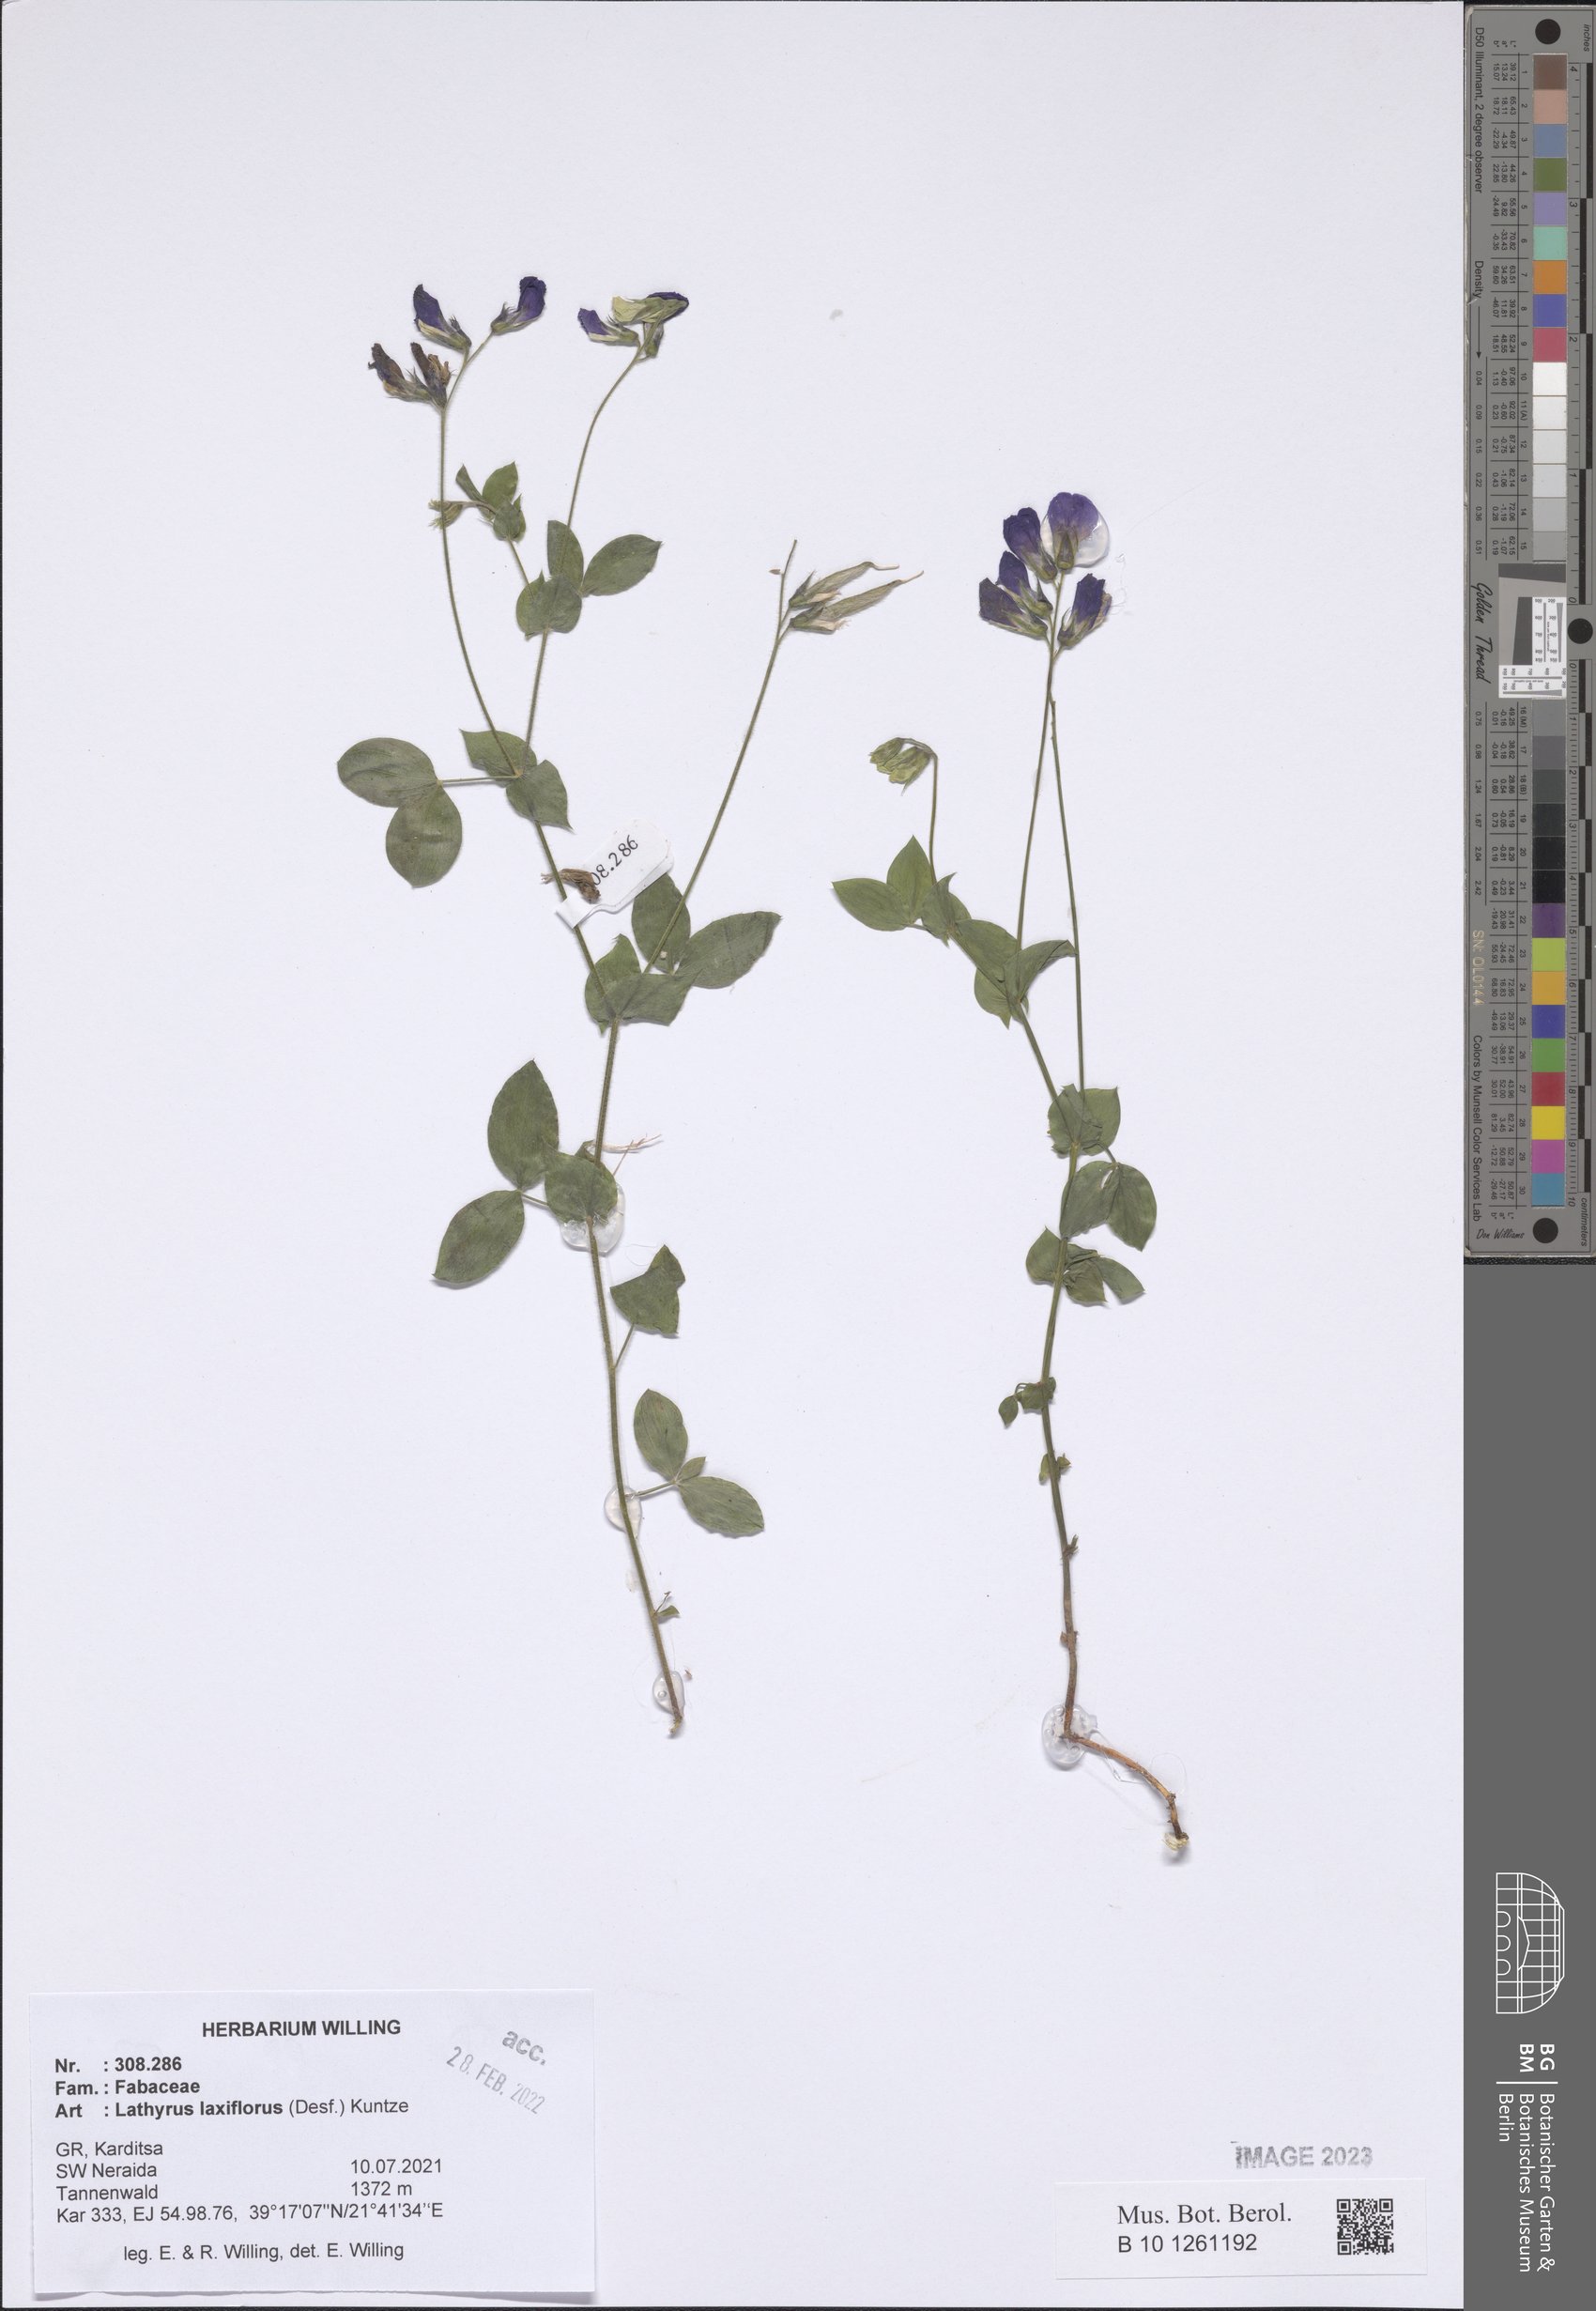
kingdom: Plantae
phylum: Tracheophyta
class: Magnoliopsida
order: Fabales
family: Fabaceae
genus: Lathyrus
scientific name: Lathyrus laxiflorus
